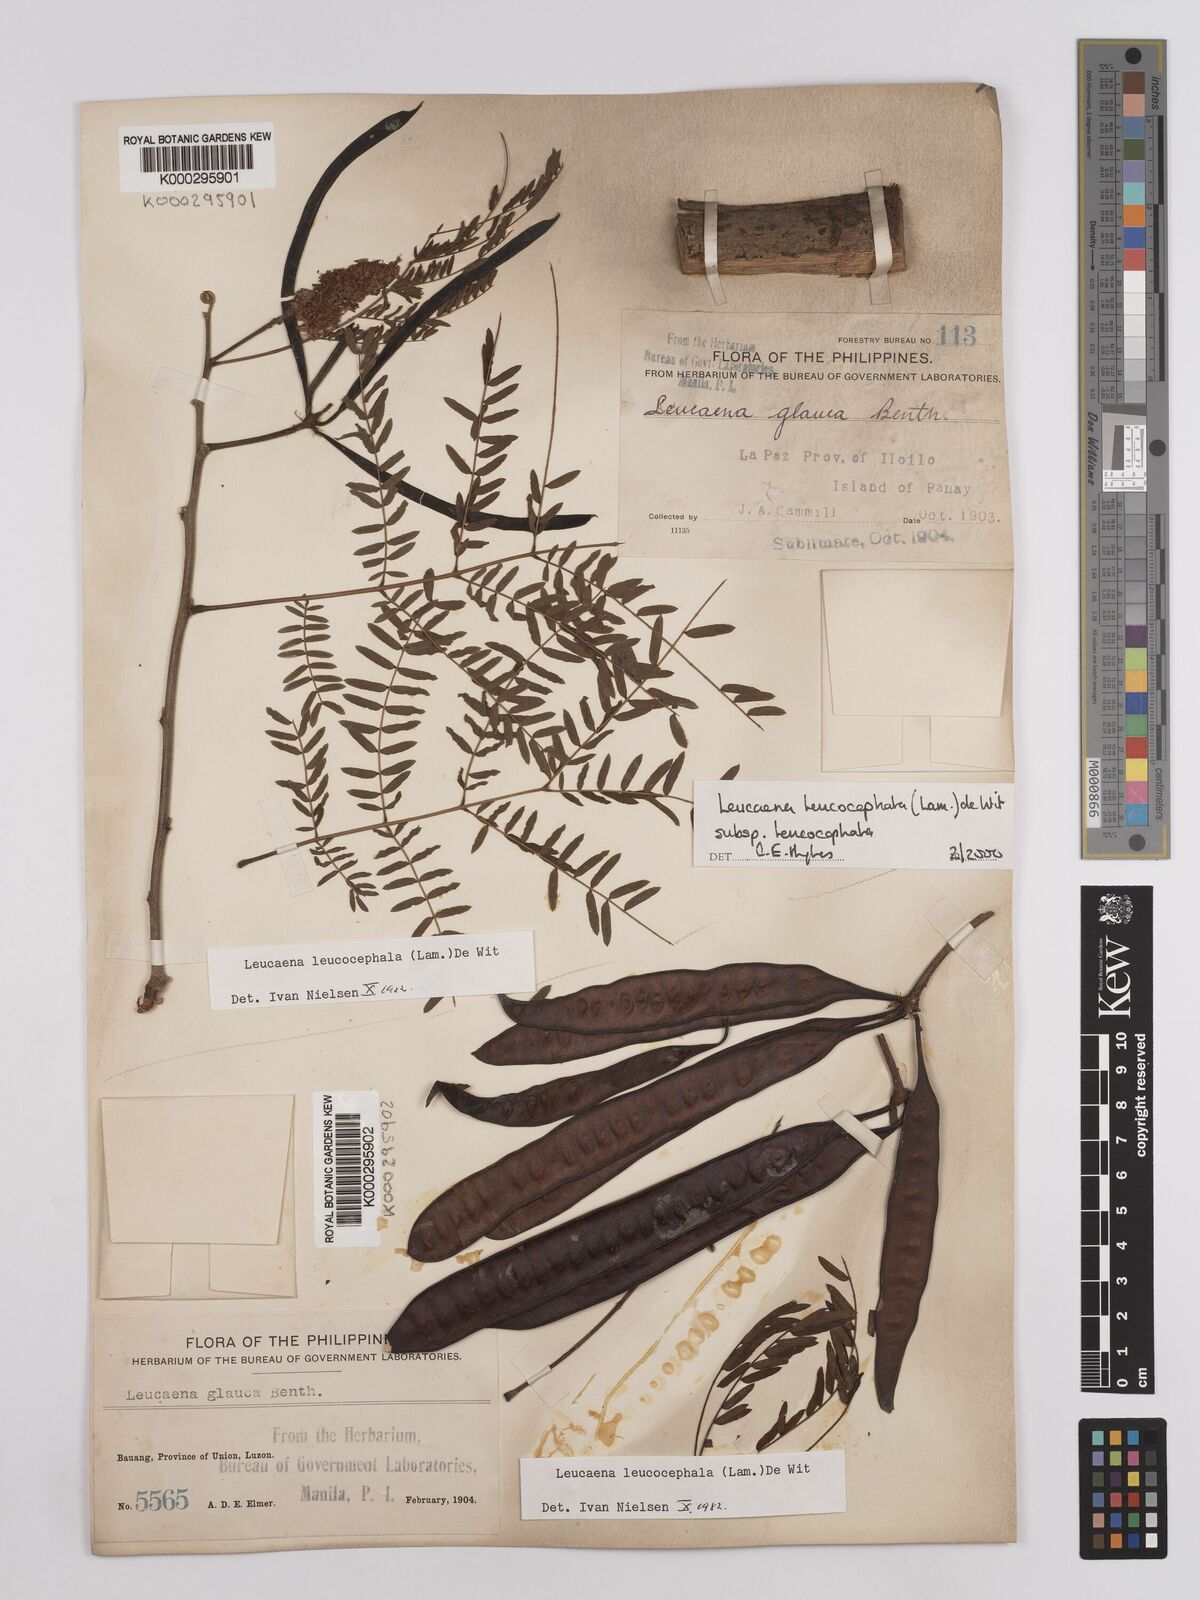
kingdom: Plantae
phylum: Tracheophyta
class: Magnoliopsida
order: Fabales
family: Fabaceae
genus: Leucaena
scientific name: Leucaena leucocephala
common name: White leadtree
